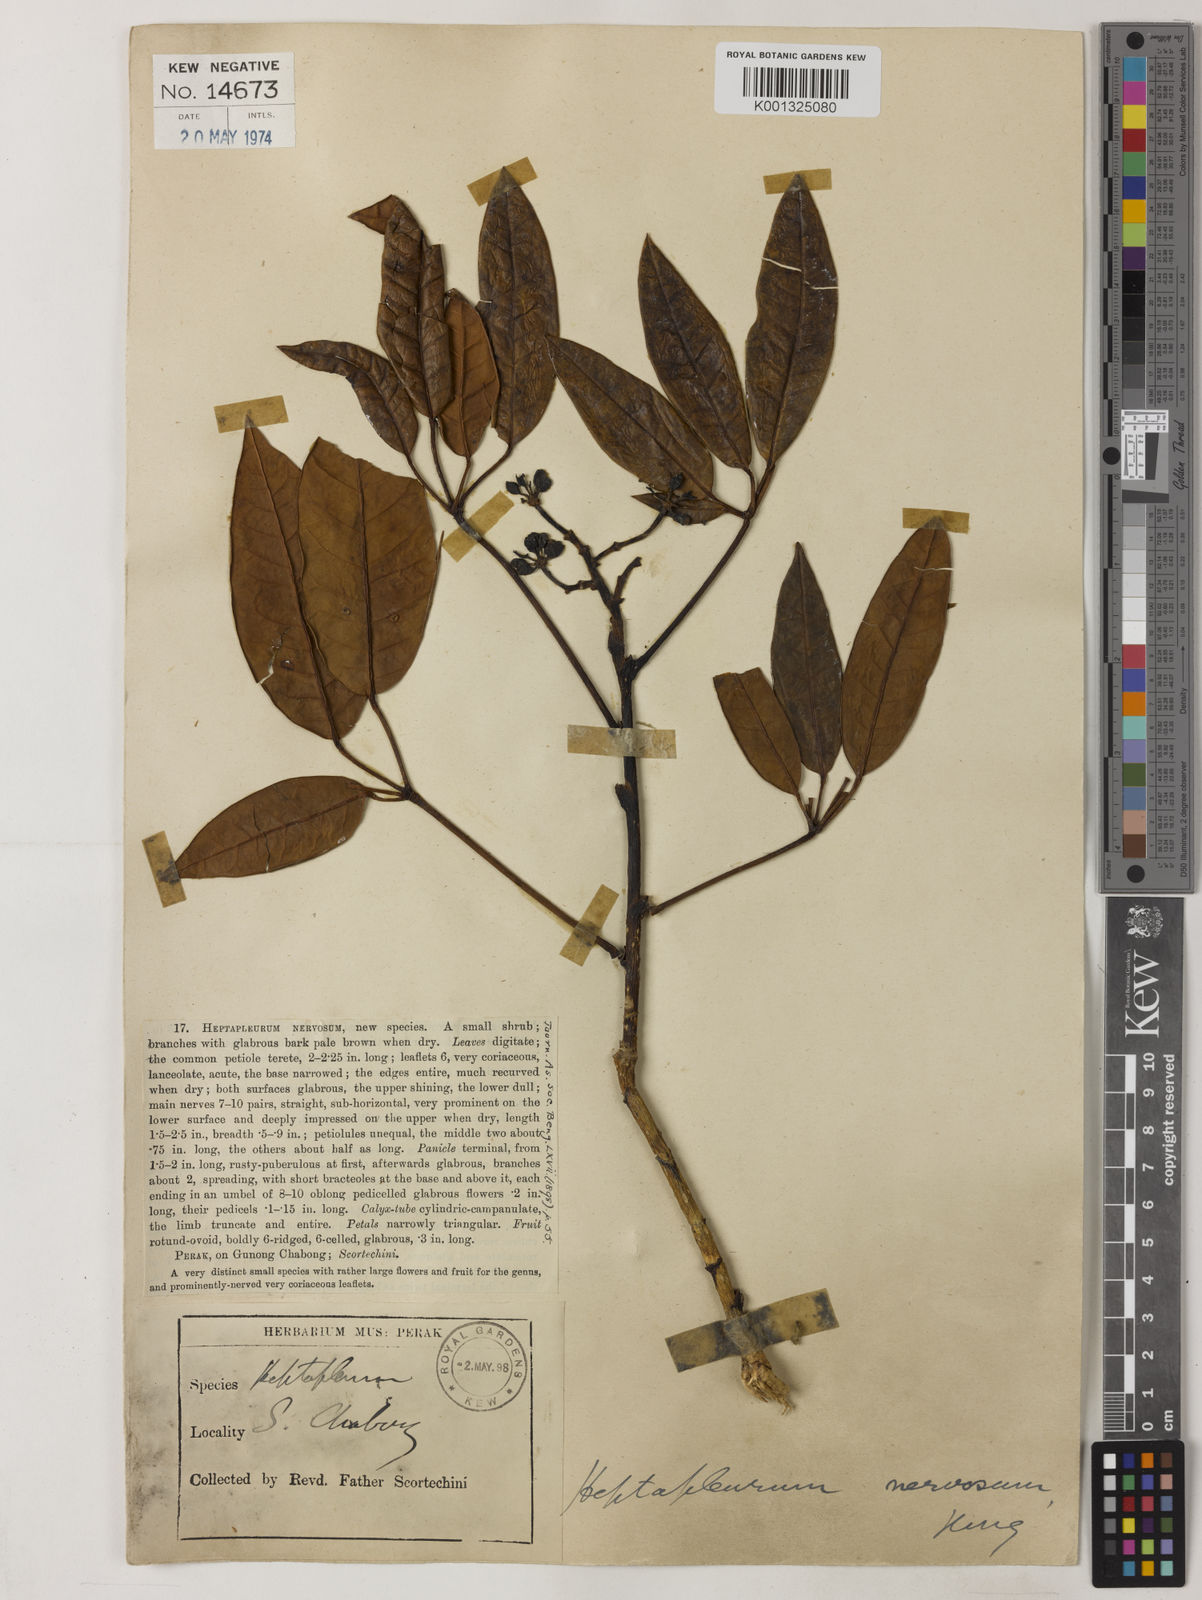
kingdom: Plantae
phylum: Tracheophyta
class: Magnoliopsida
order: Apiales
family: Araliaceae
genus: Heptapleurum
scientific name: Heptapleurum nervosum
